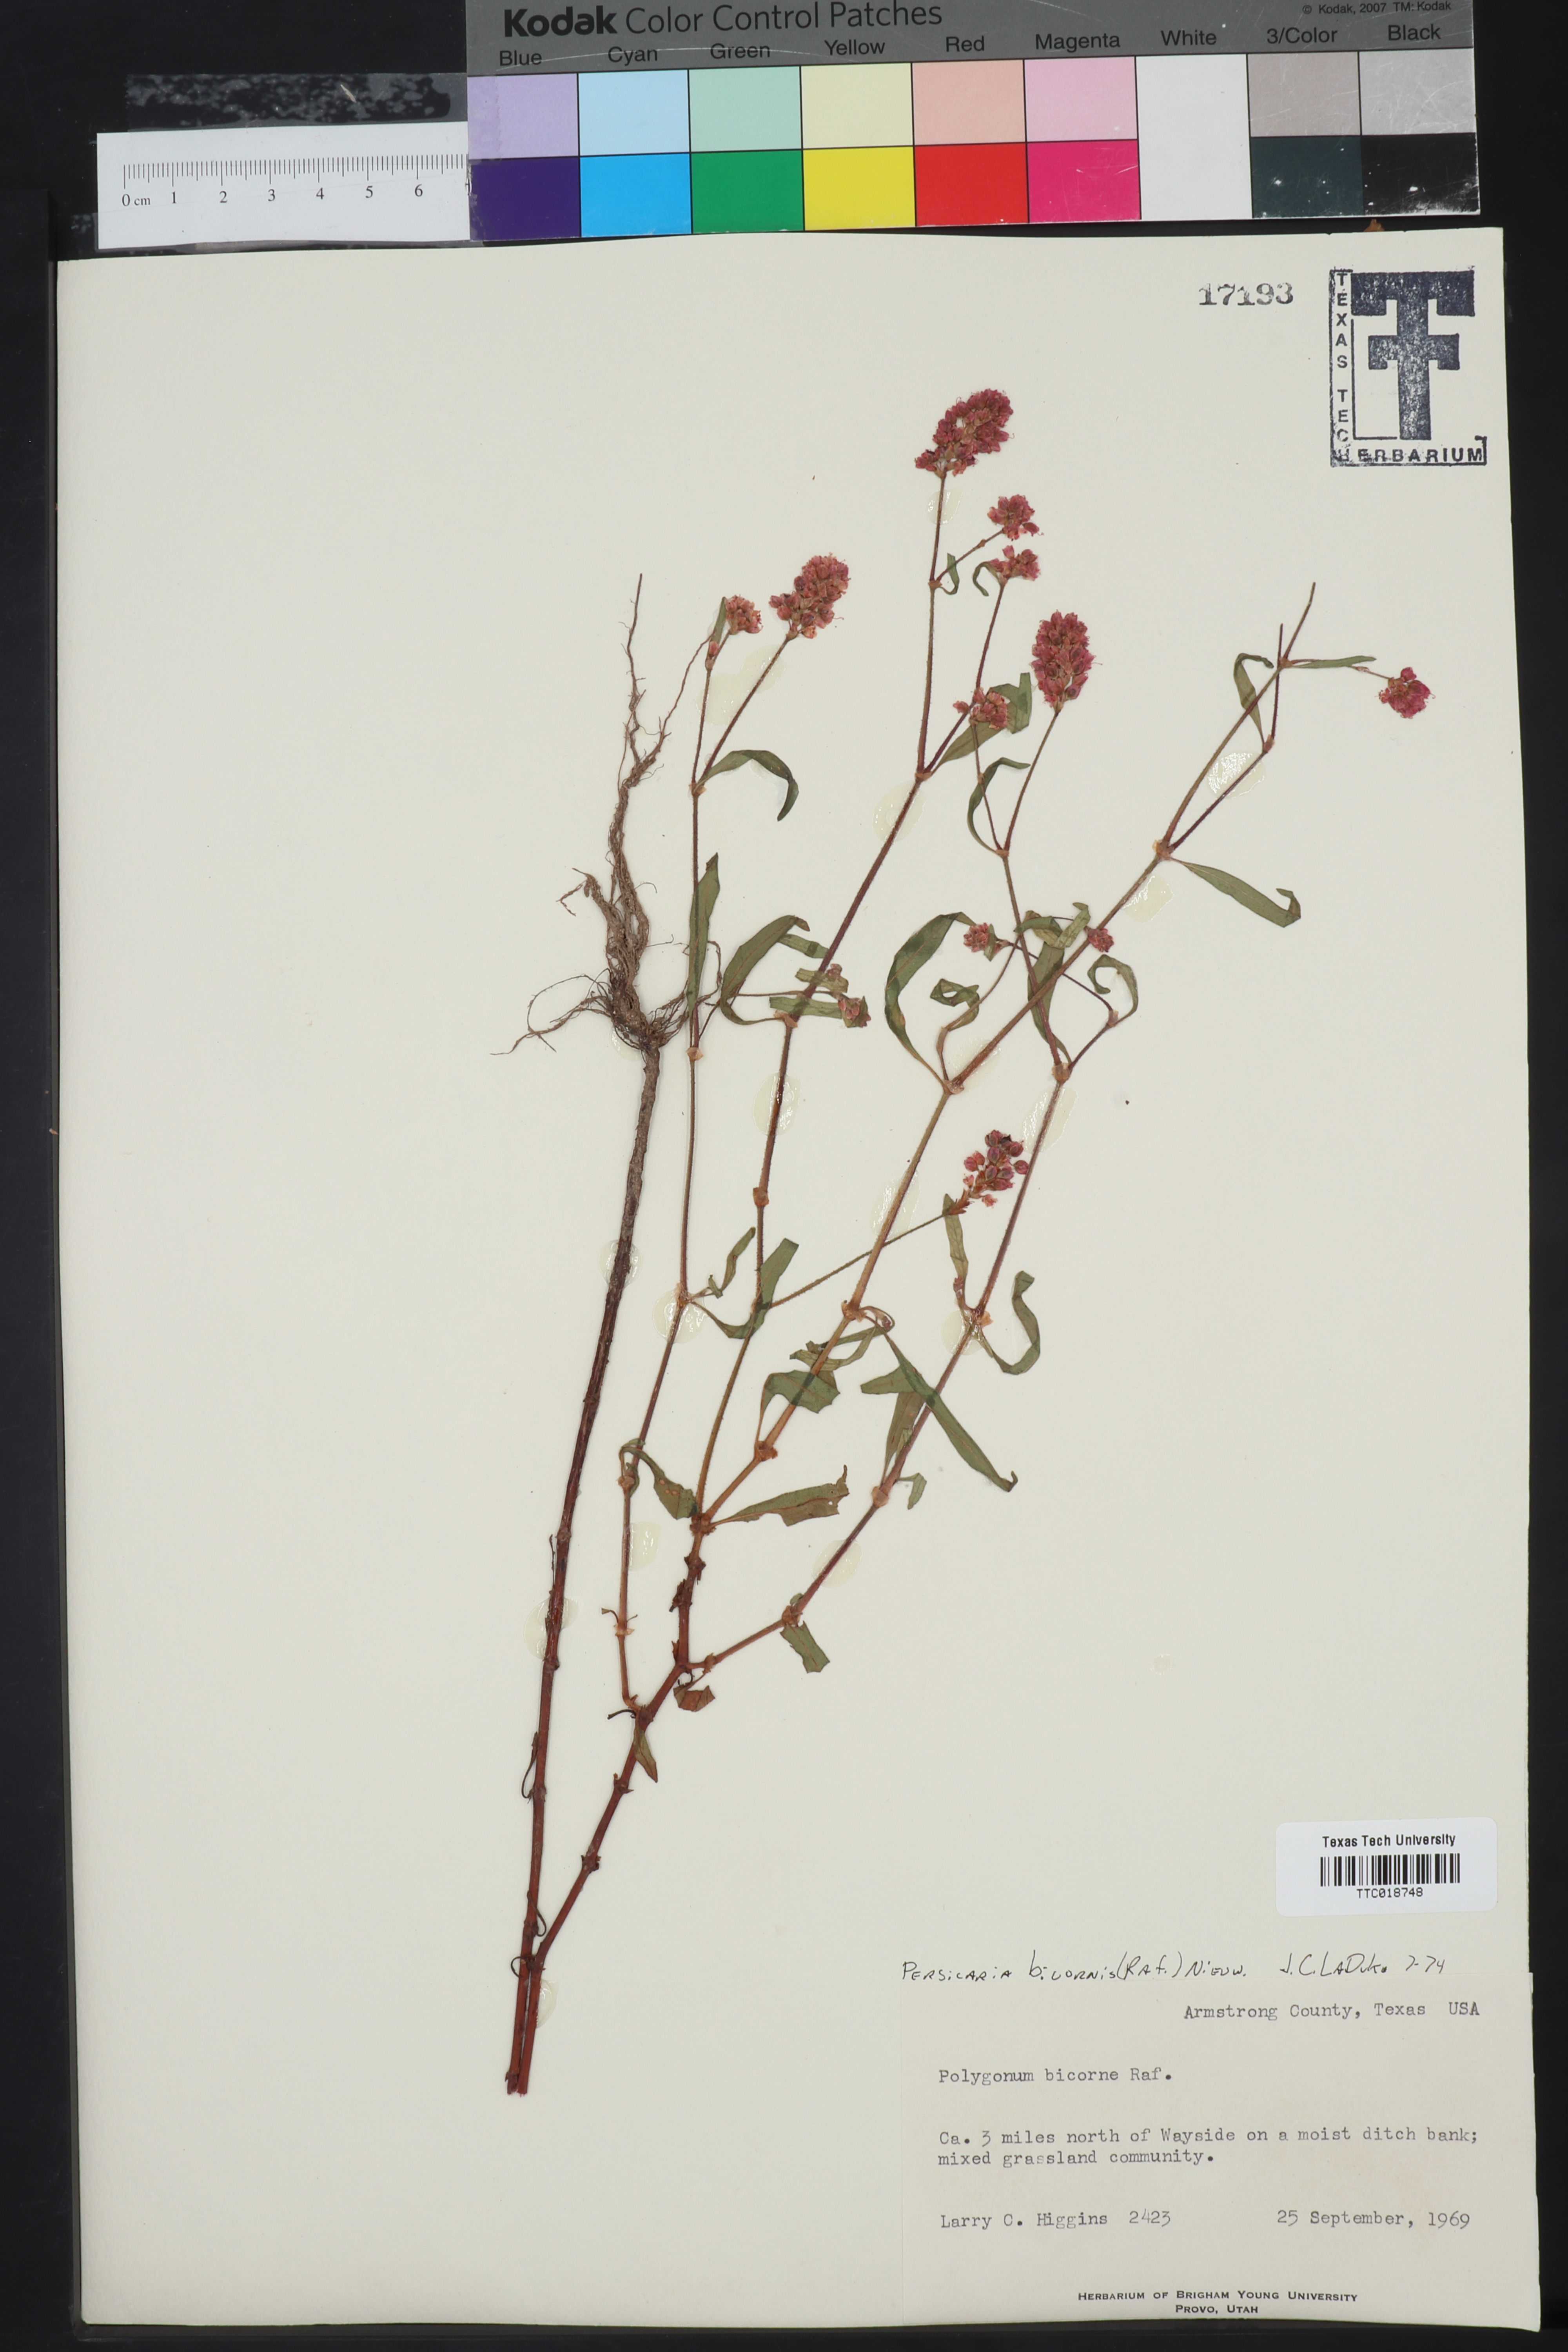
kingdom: Plantae
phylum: Tracheophyta
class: Magnoliopsida
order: Caryophyllales
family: Polygonaceae
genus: Persicaria
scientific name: Persicaria bicornis
